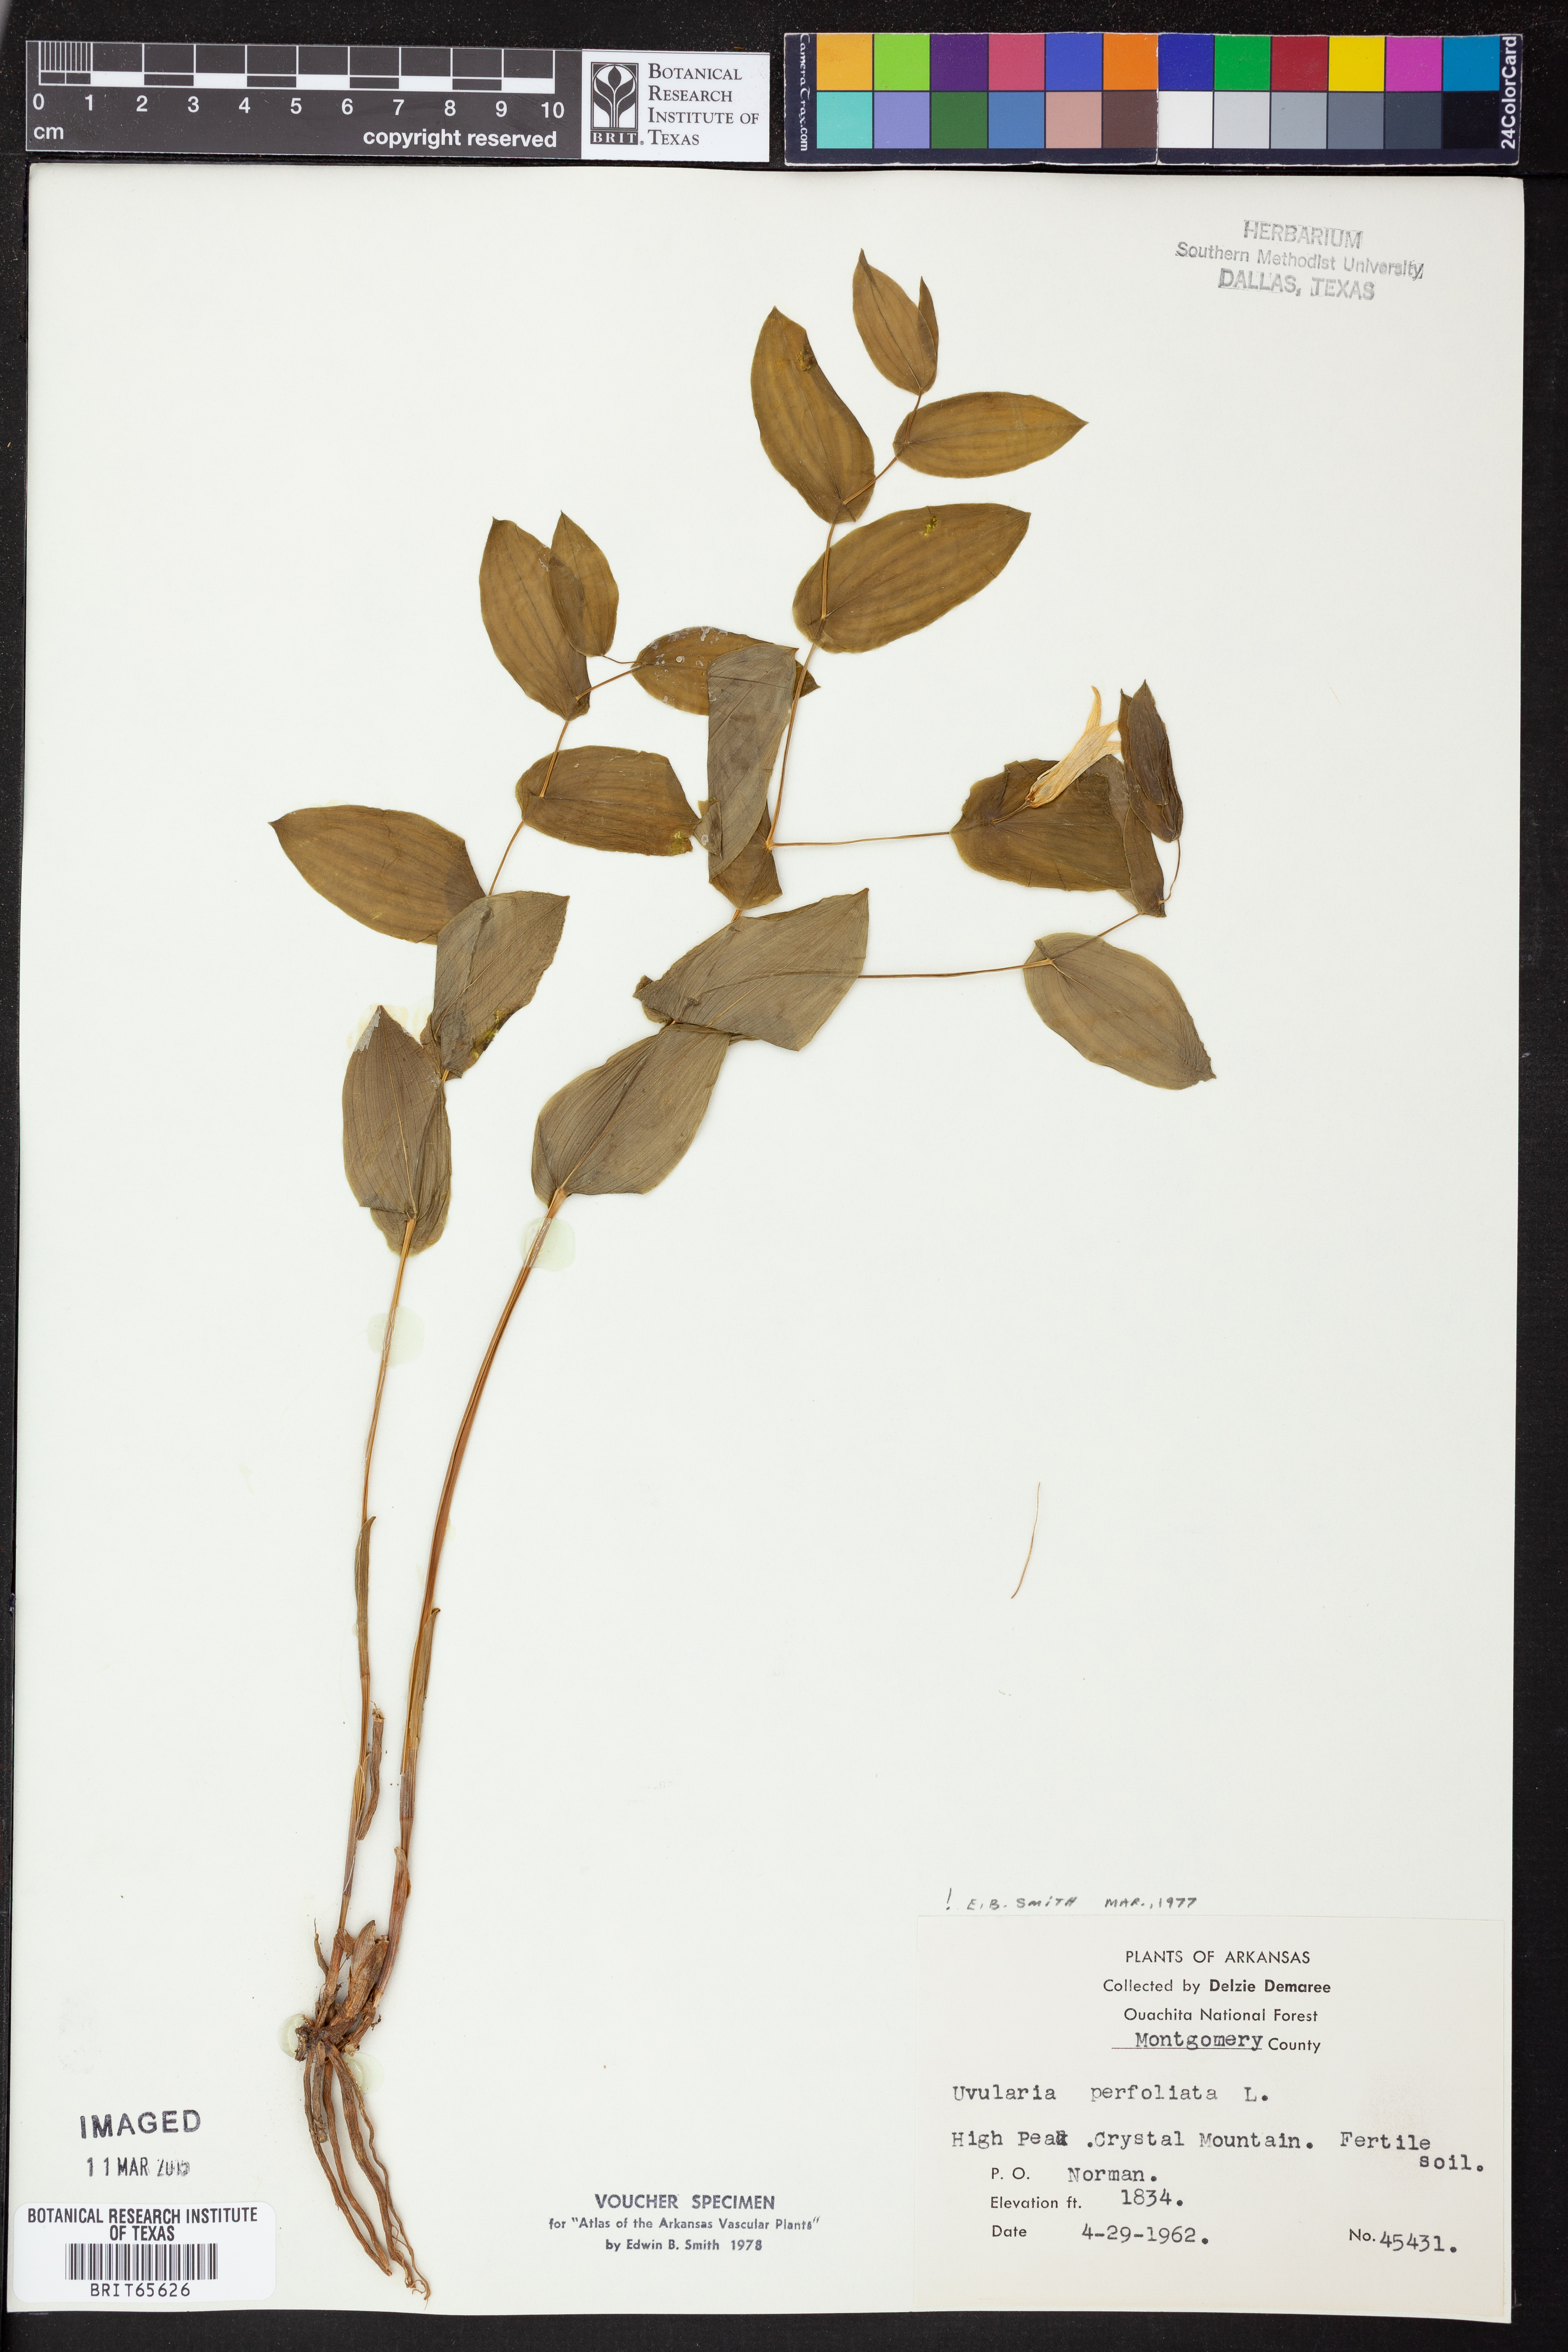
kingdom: Plantae
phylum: Tracheophyta
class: Liliopsida
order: Liliales
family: Colchicaceae
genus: Uvularia
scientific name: Uvularia perfoliata
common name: Perfoliate bellwort
